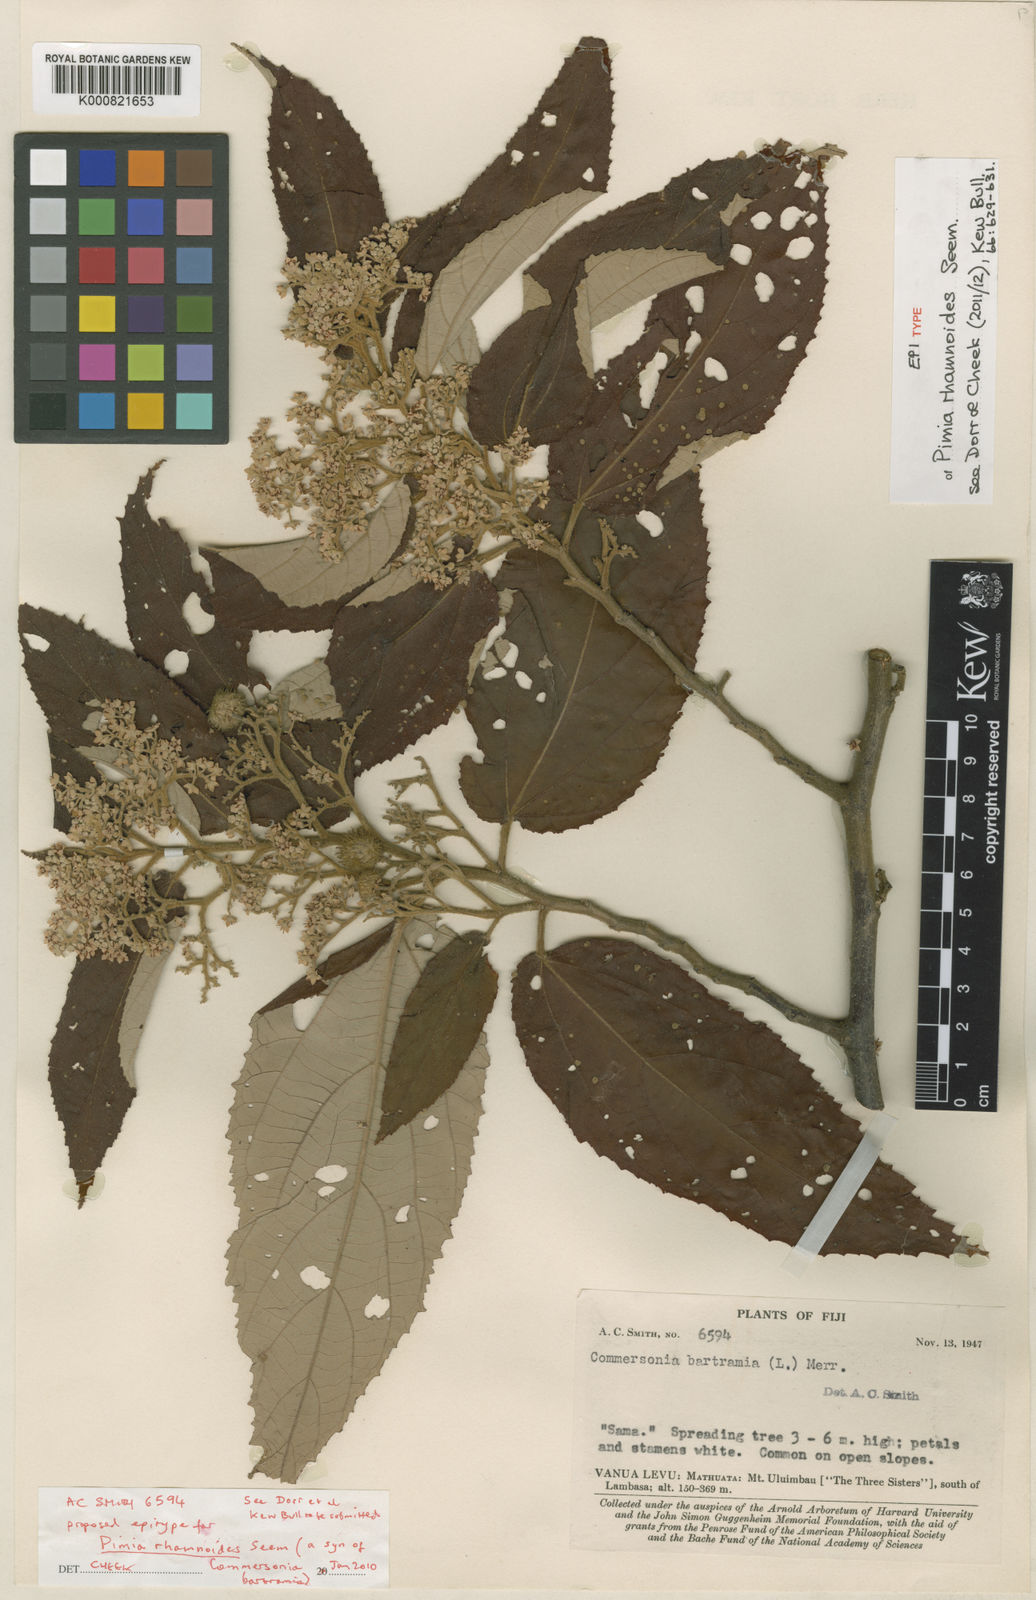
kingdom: Plantae
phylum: Tracheophyta
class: Magnoliopsida
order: Malvales
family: Malvaceae
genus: Commersonia
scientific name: Commersonia bartramia
